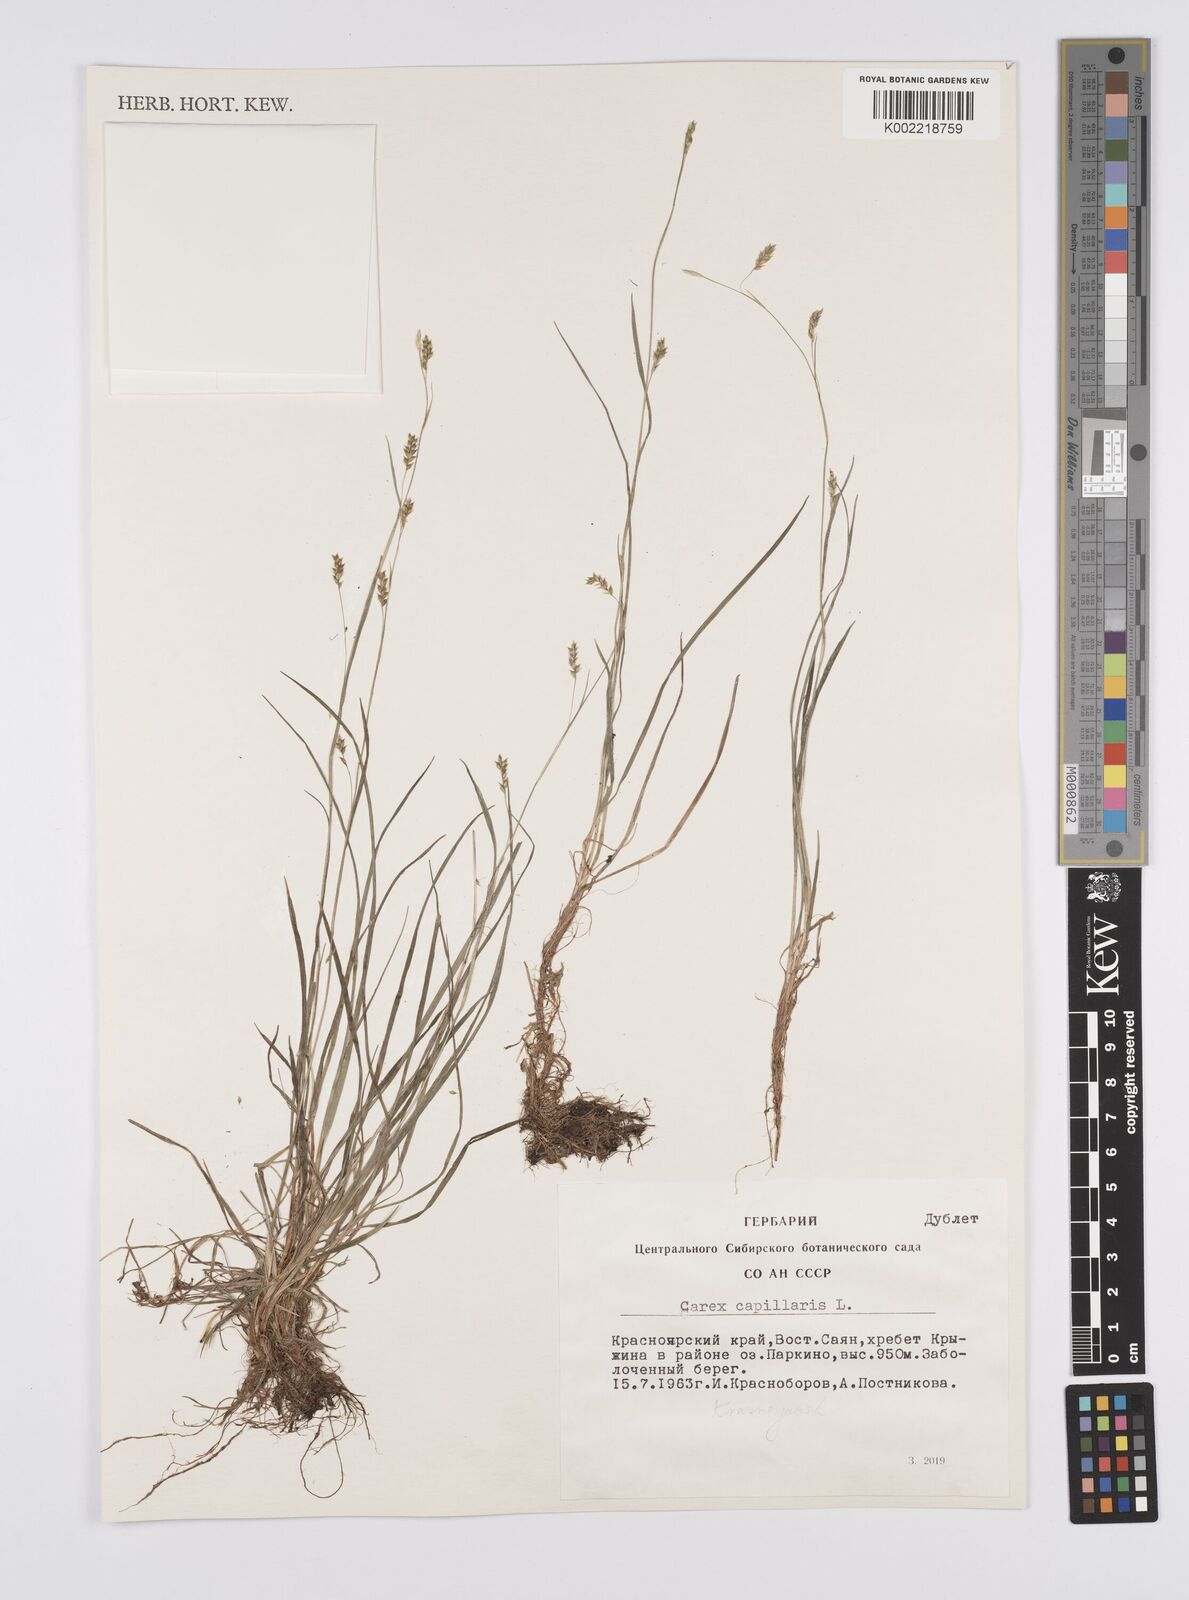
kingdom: Plantae
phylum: Tracheophyta
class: Liliopsida
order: Poales
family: Cyperaceae
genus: Carex
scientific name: Carex capillaris
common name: Hair sedge
